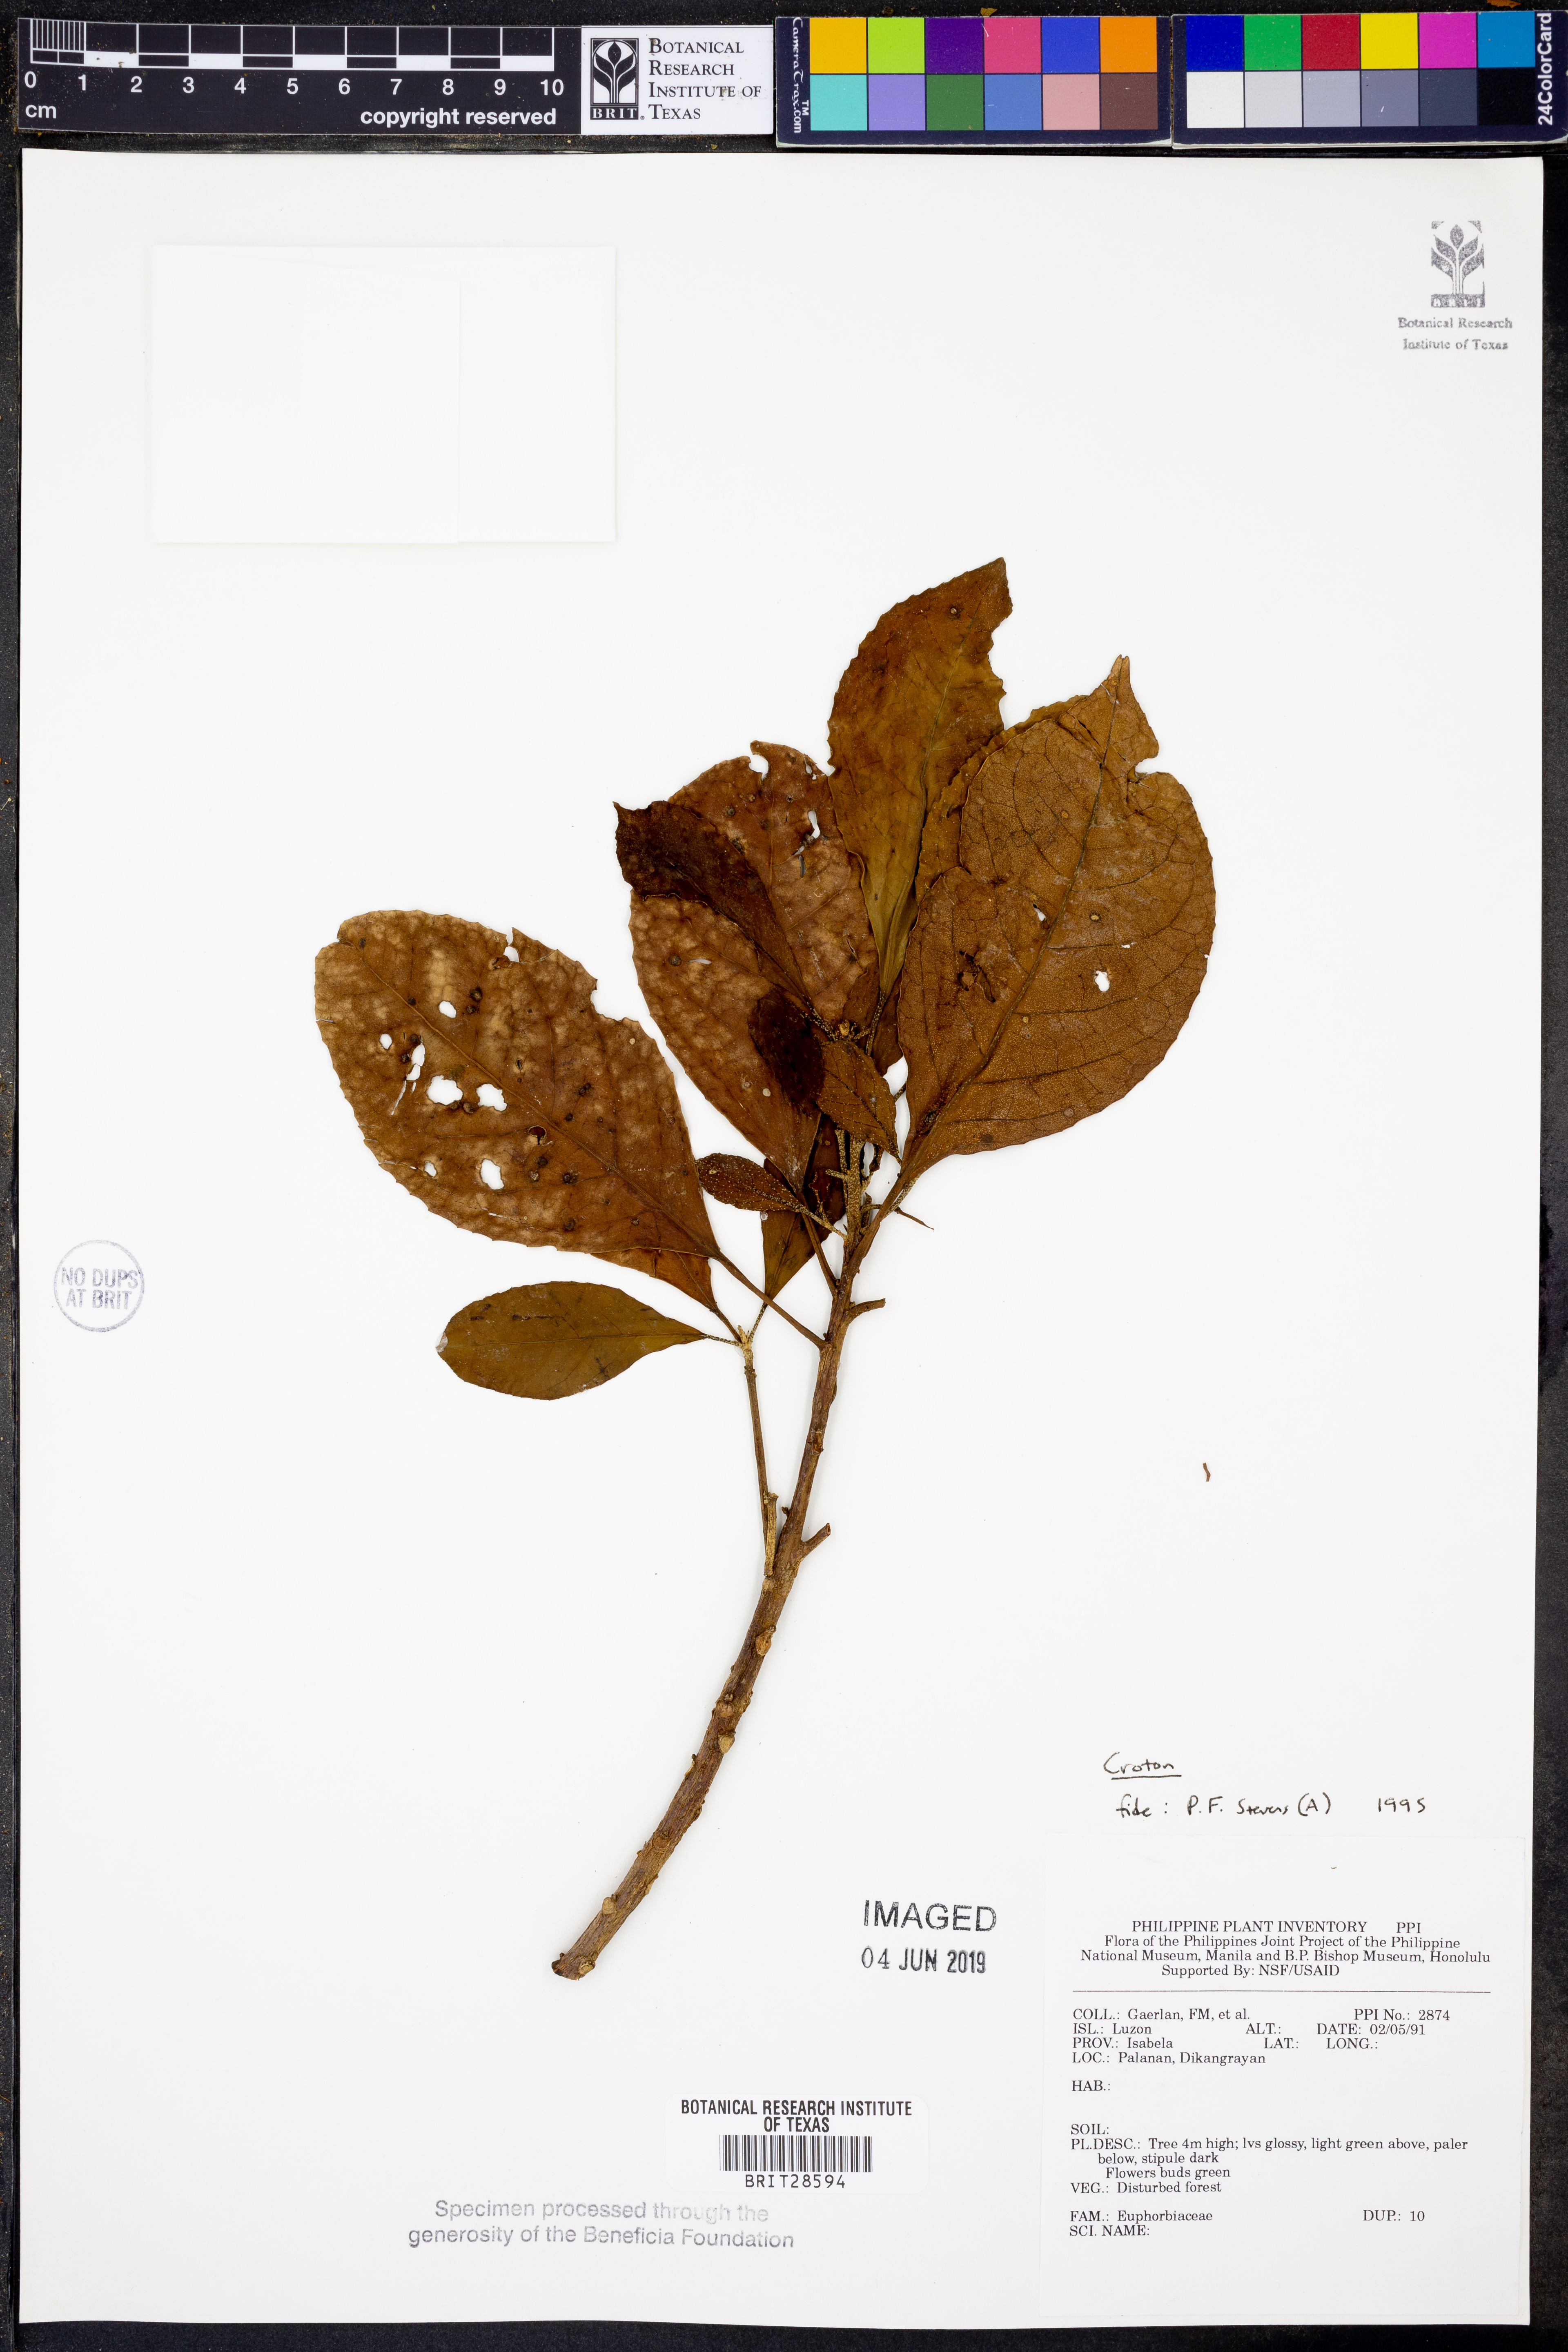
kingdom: Plantae
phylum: Tracheophyta
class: Magnoliopsida
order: Malpighiales
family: Euphorbiaceae
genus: Croton
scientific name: Croton
